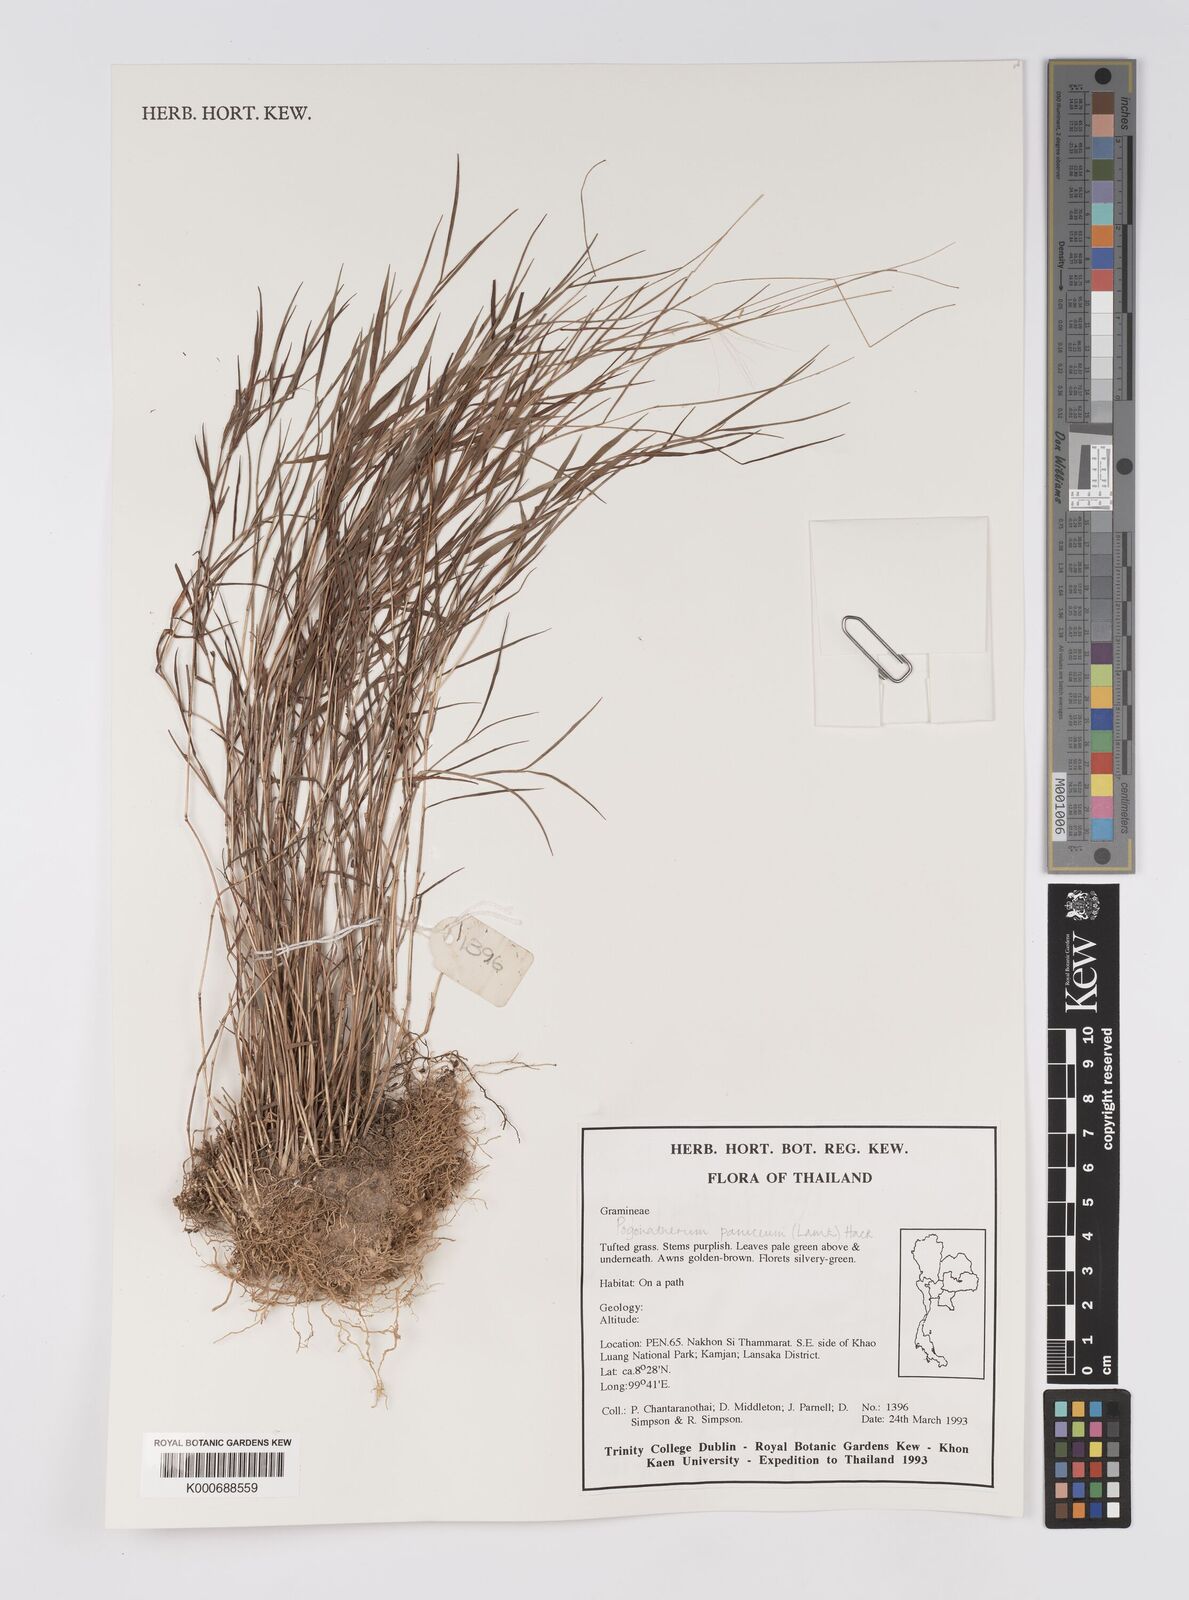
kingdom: Plantae
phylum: Tracheophyta
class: Liliopsida
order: Poales
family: Poaceae
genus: Pogonatherum
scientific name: Pogonatherum paniceum
